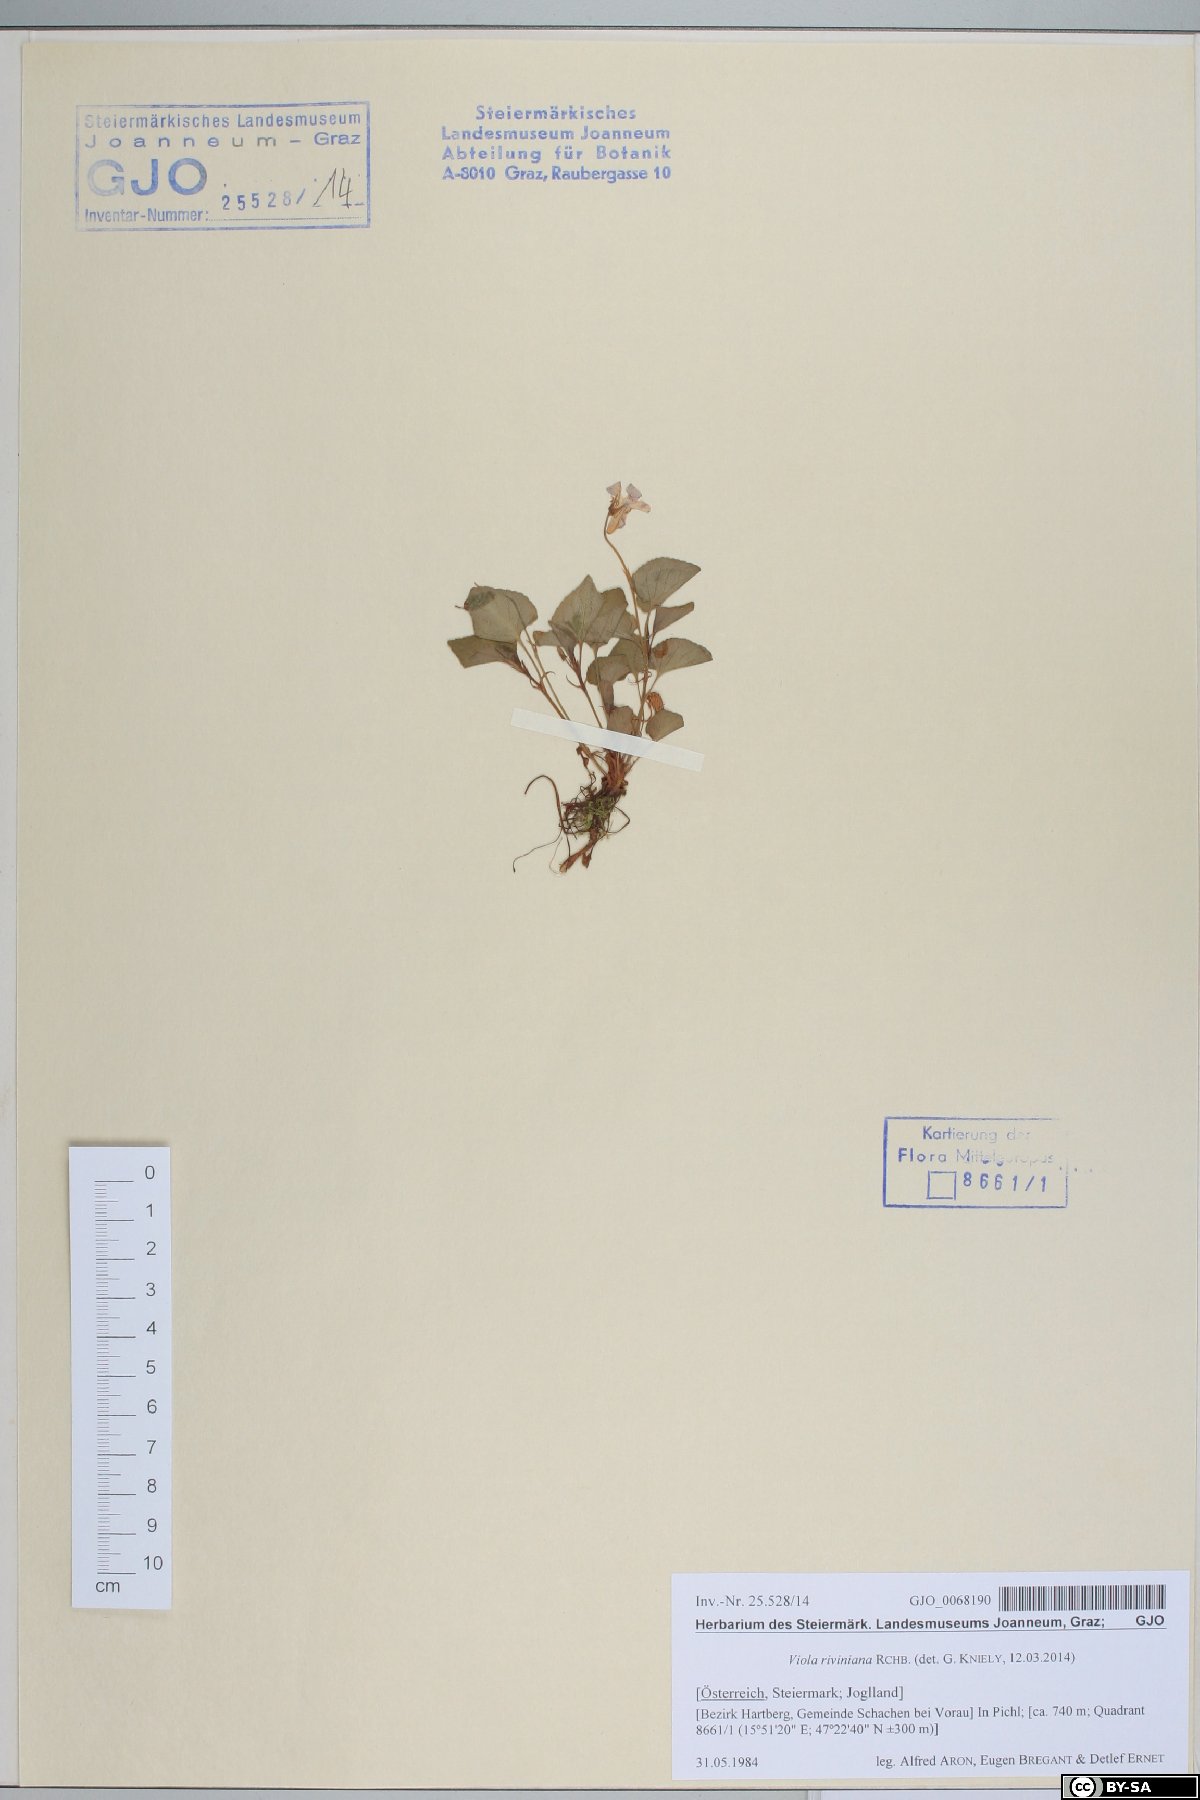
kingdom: Plantae
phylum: Tracheophyta
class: Magnoliopsida
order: Malpighiales
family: Violaceae
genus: Viola
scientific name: Viola riviniana
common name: Common dog-violet
